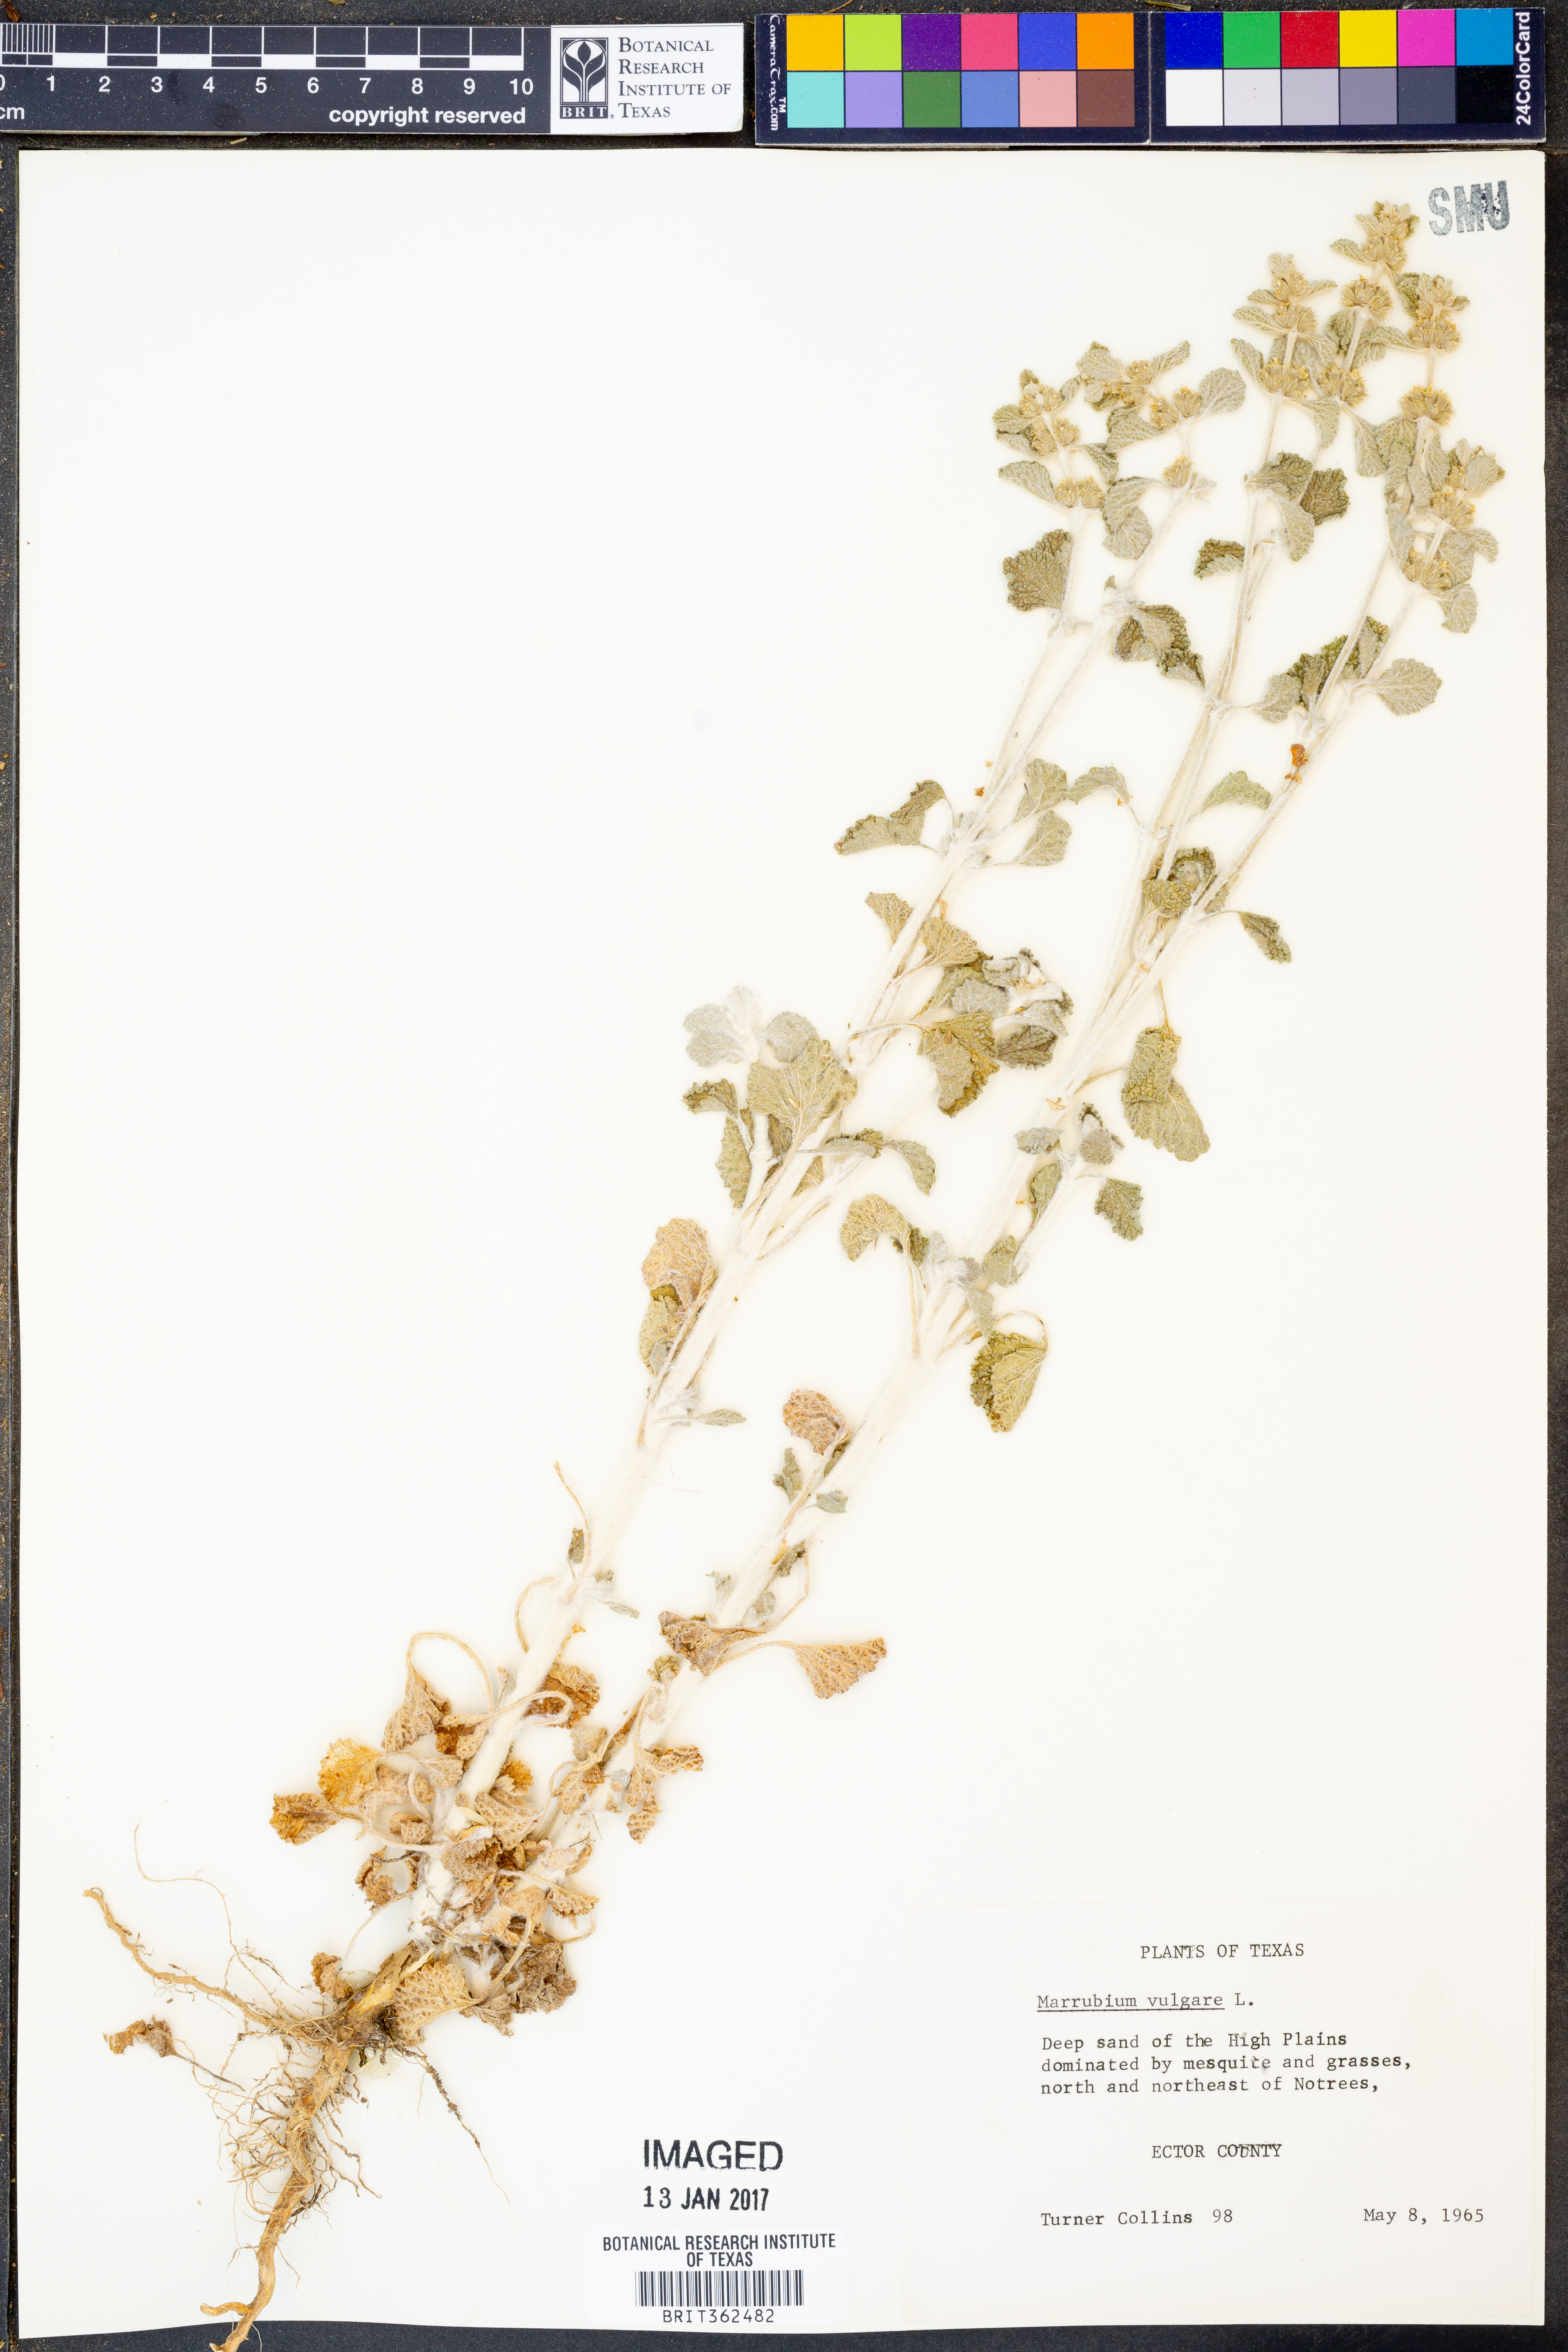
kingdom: Plantae
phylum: Tracheophyta
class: Magnoliopsida
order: Lamiales
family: Lamiaceae
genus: Marrubium
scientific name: Marrubium vulgare
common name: Horehound
